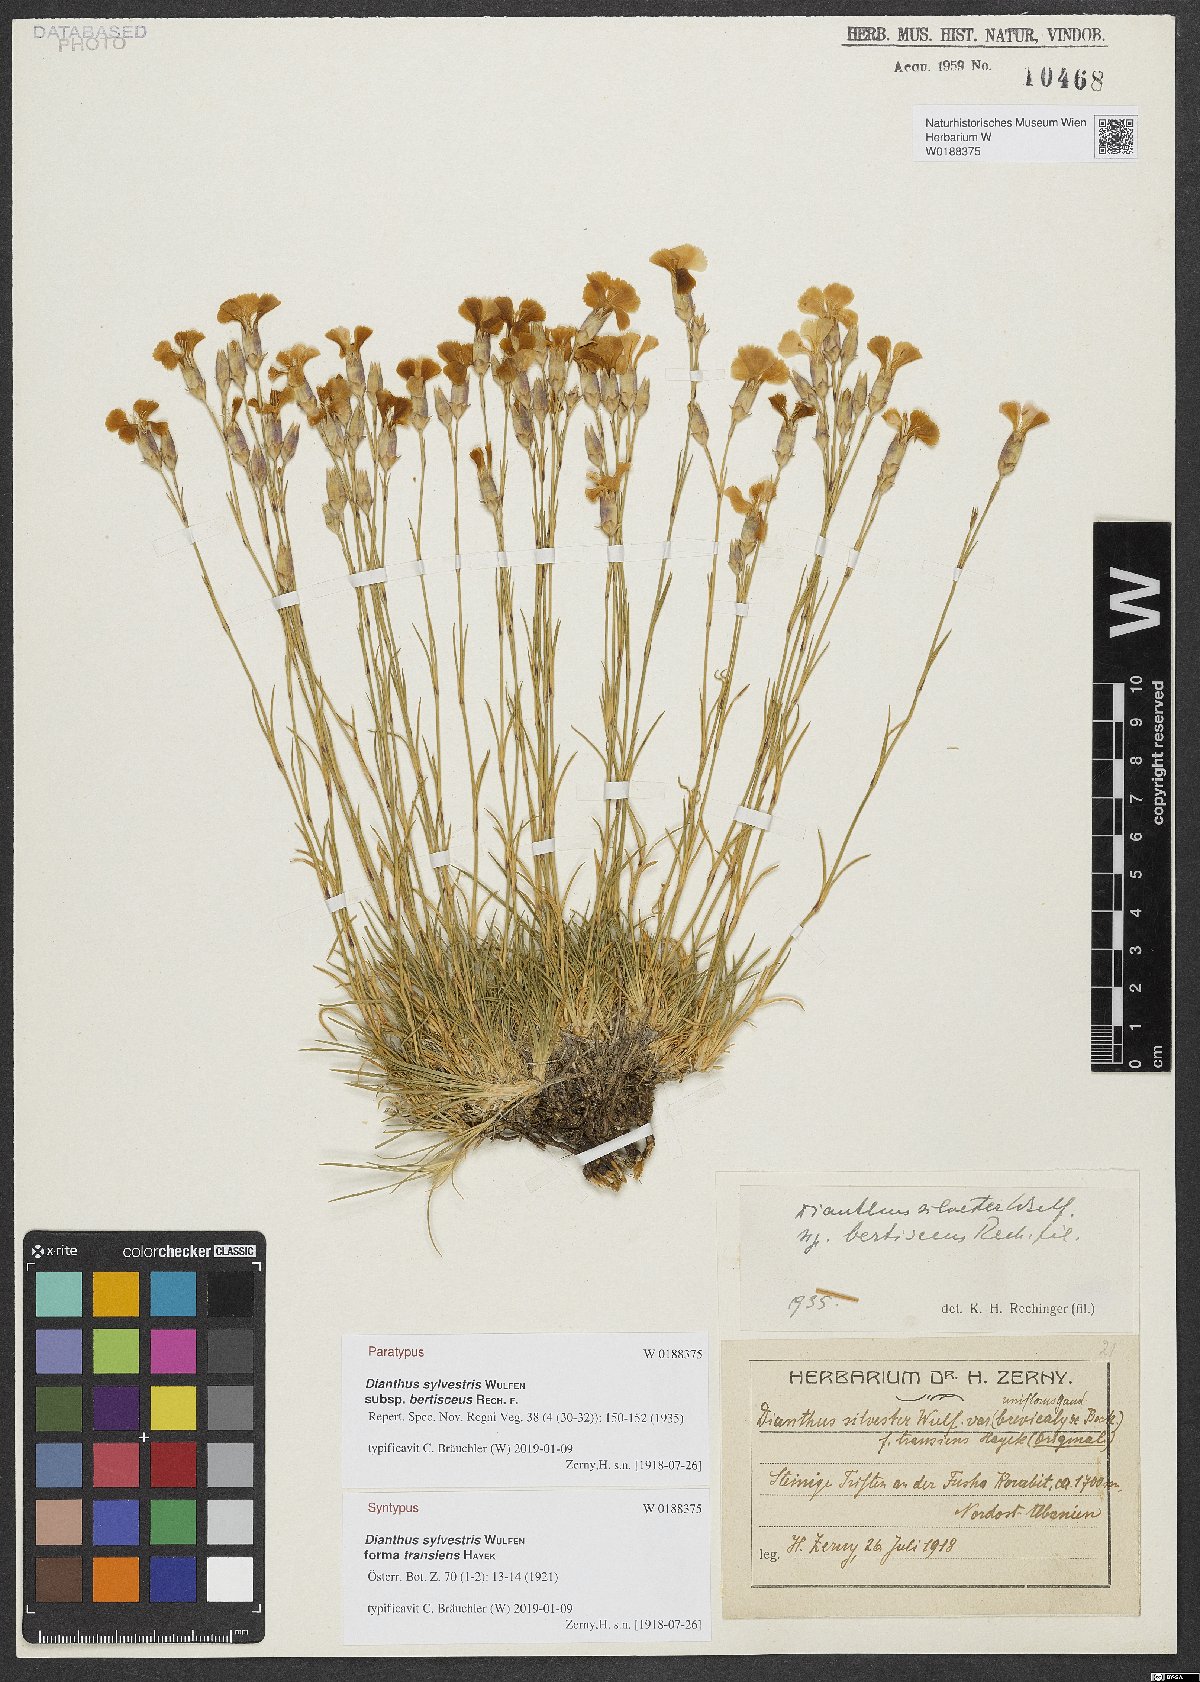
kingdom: Plantae
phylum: Tracheophyta
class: Magnoliopsida
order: Caryophyllales
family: Caryophyllaceae
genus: Dianthus
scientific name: Dianthus sylvestris
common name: Wood pink
